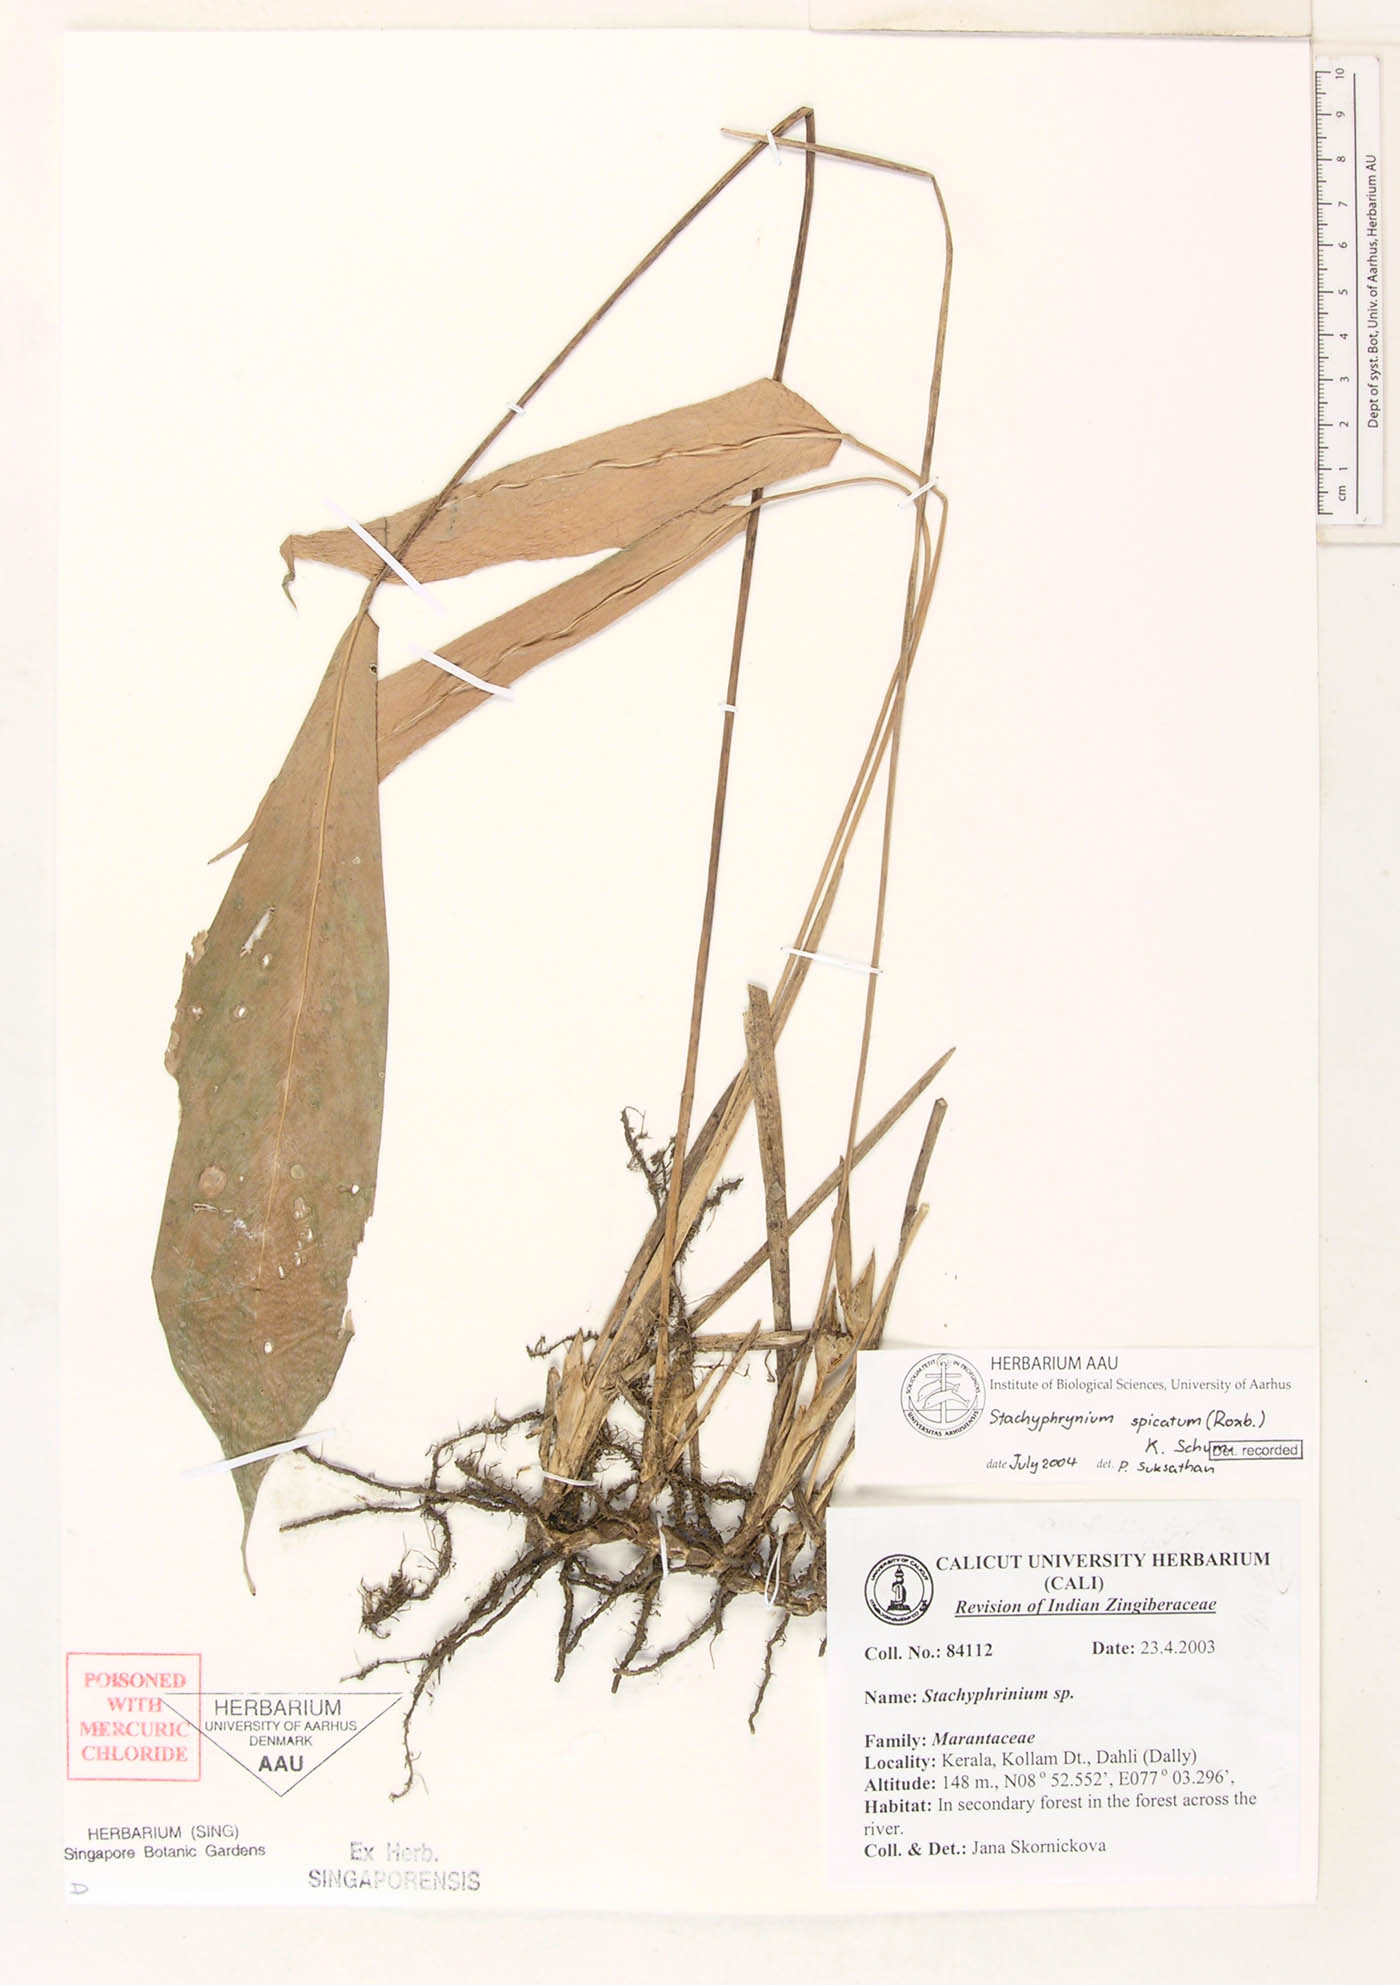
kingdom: Plantae
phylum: Tracheophyta
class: Liliopsida
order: Zingiberales
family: Marantaceae
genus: Stachyphrynium
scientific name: Stachyphrynium spicatum
